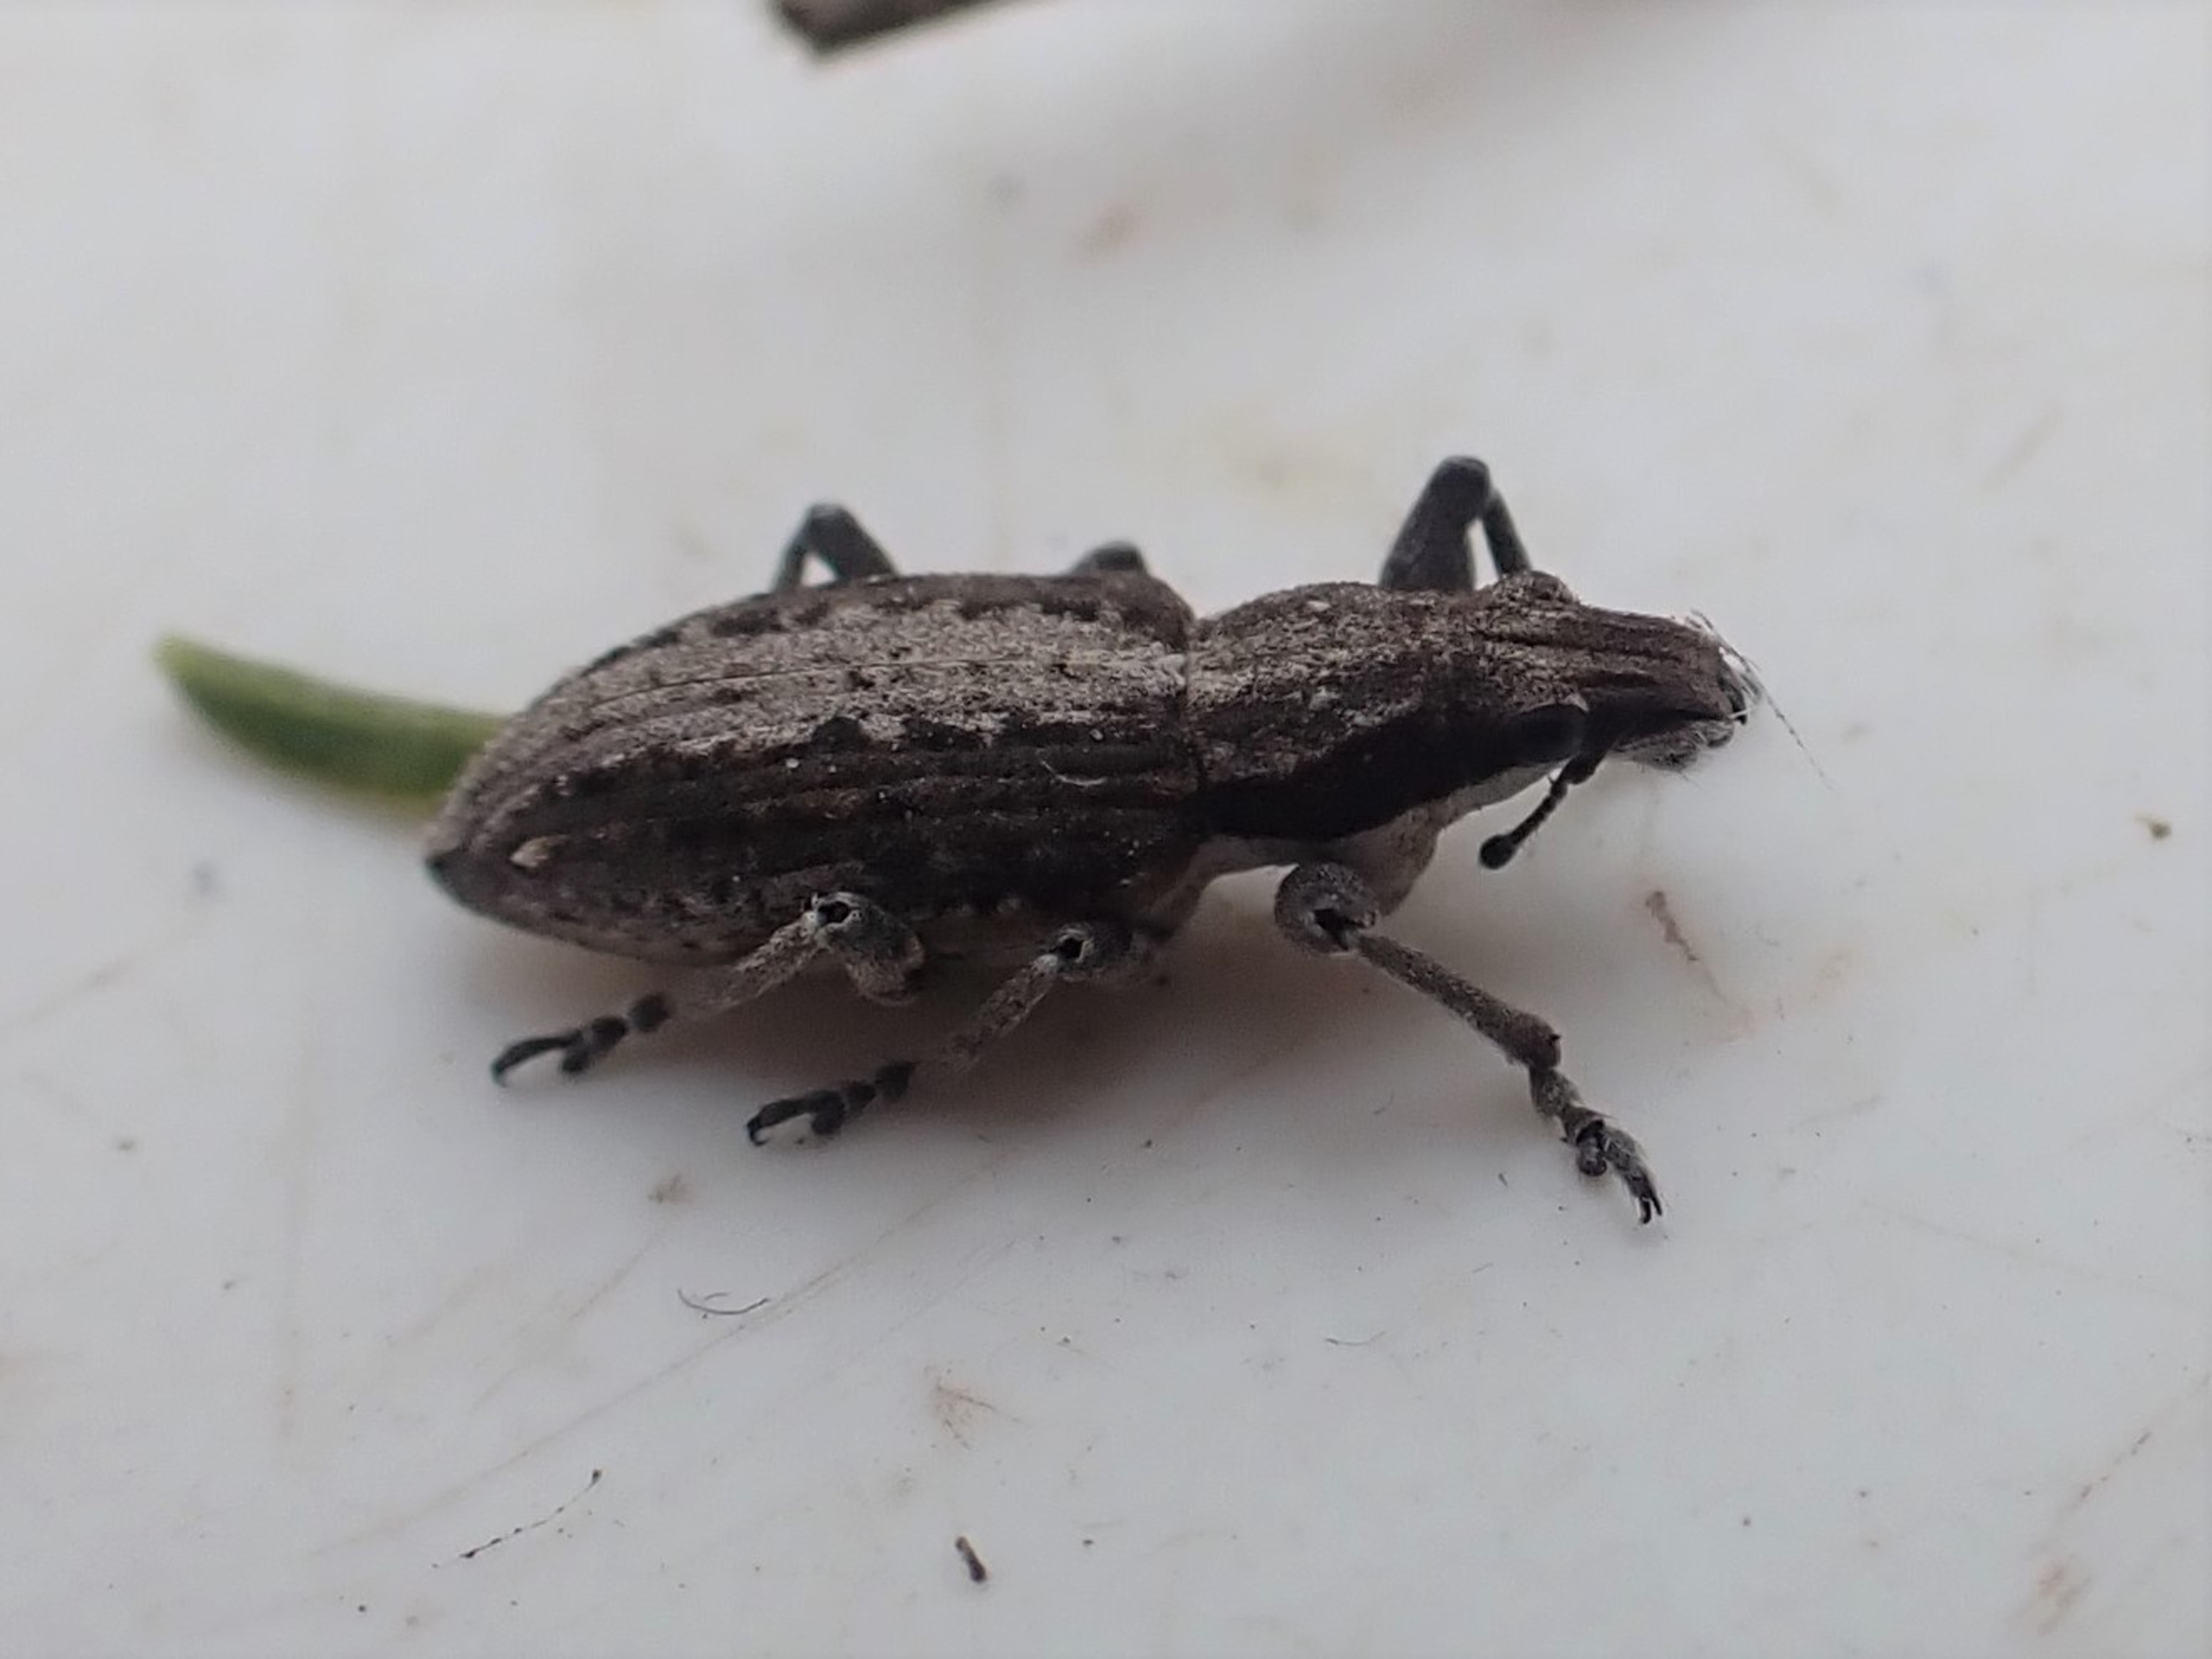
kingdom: Animalia
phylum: Arthropoda
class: Insecta
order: Coleoptera
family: Curculionidae
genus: Charagmus
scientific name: Charagmus griseus
